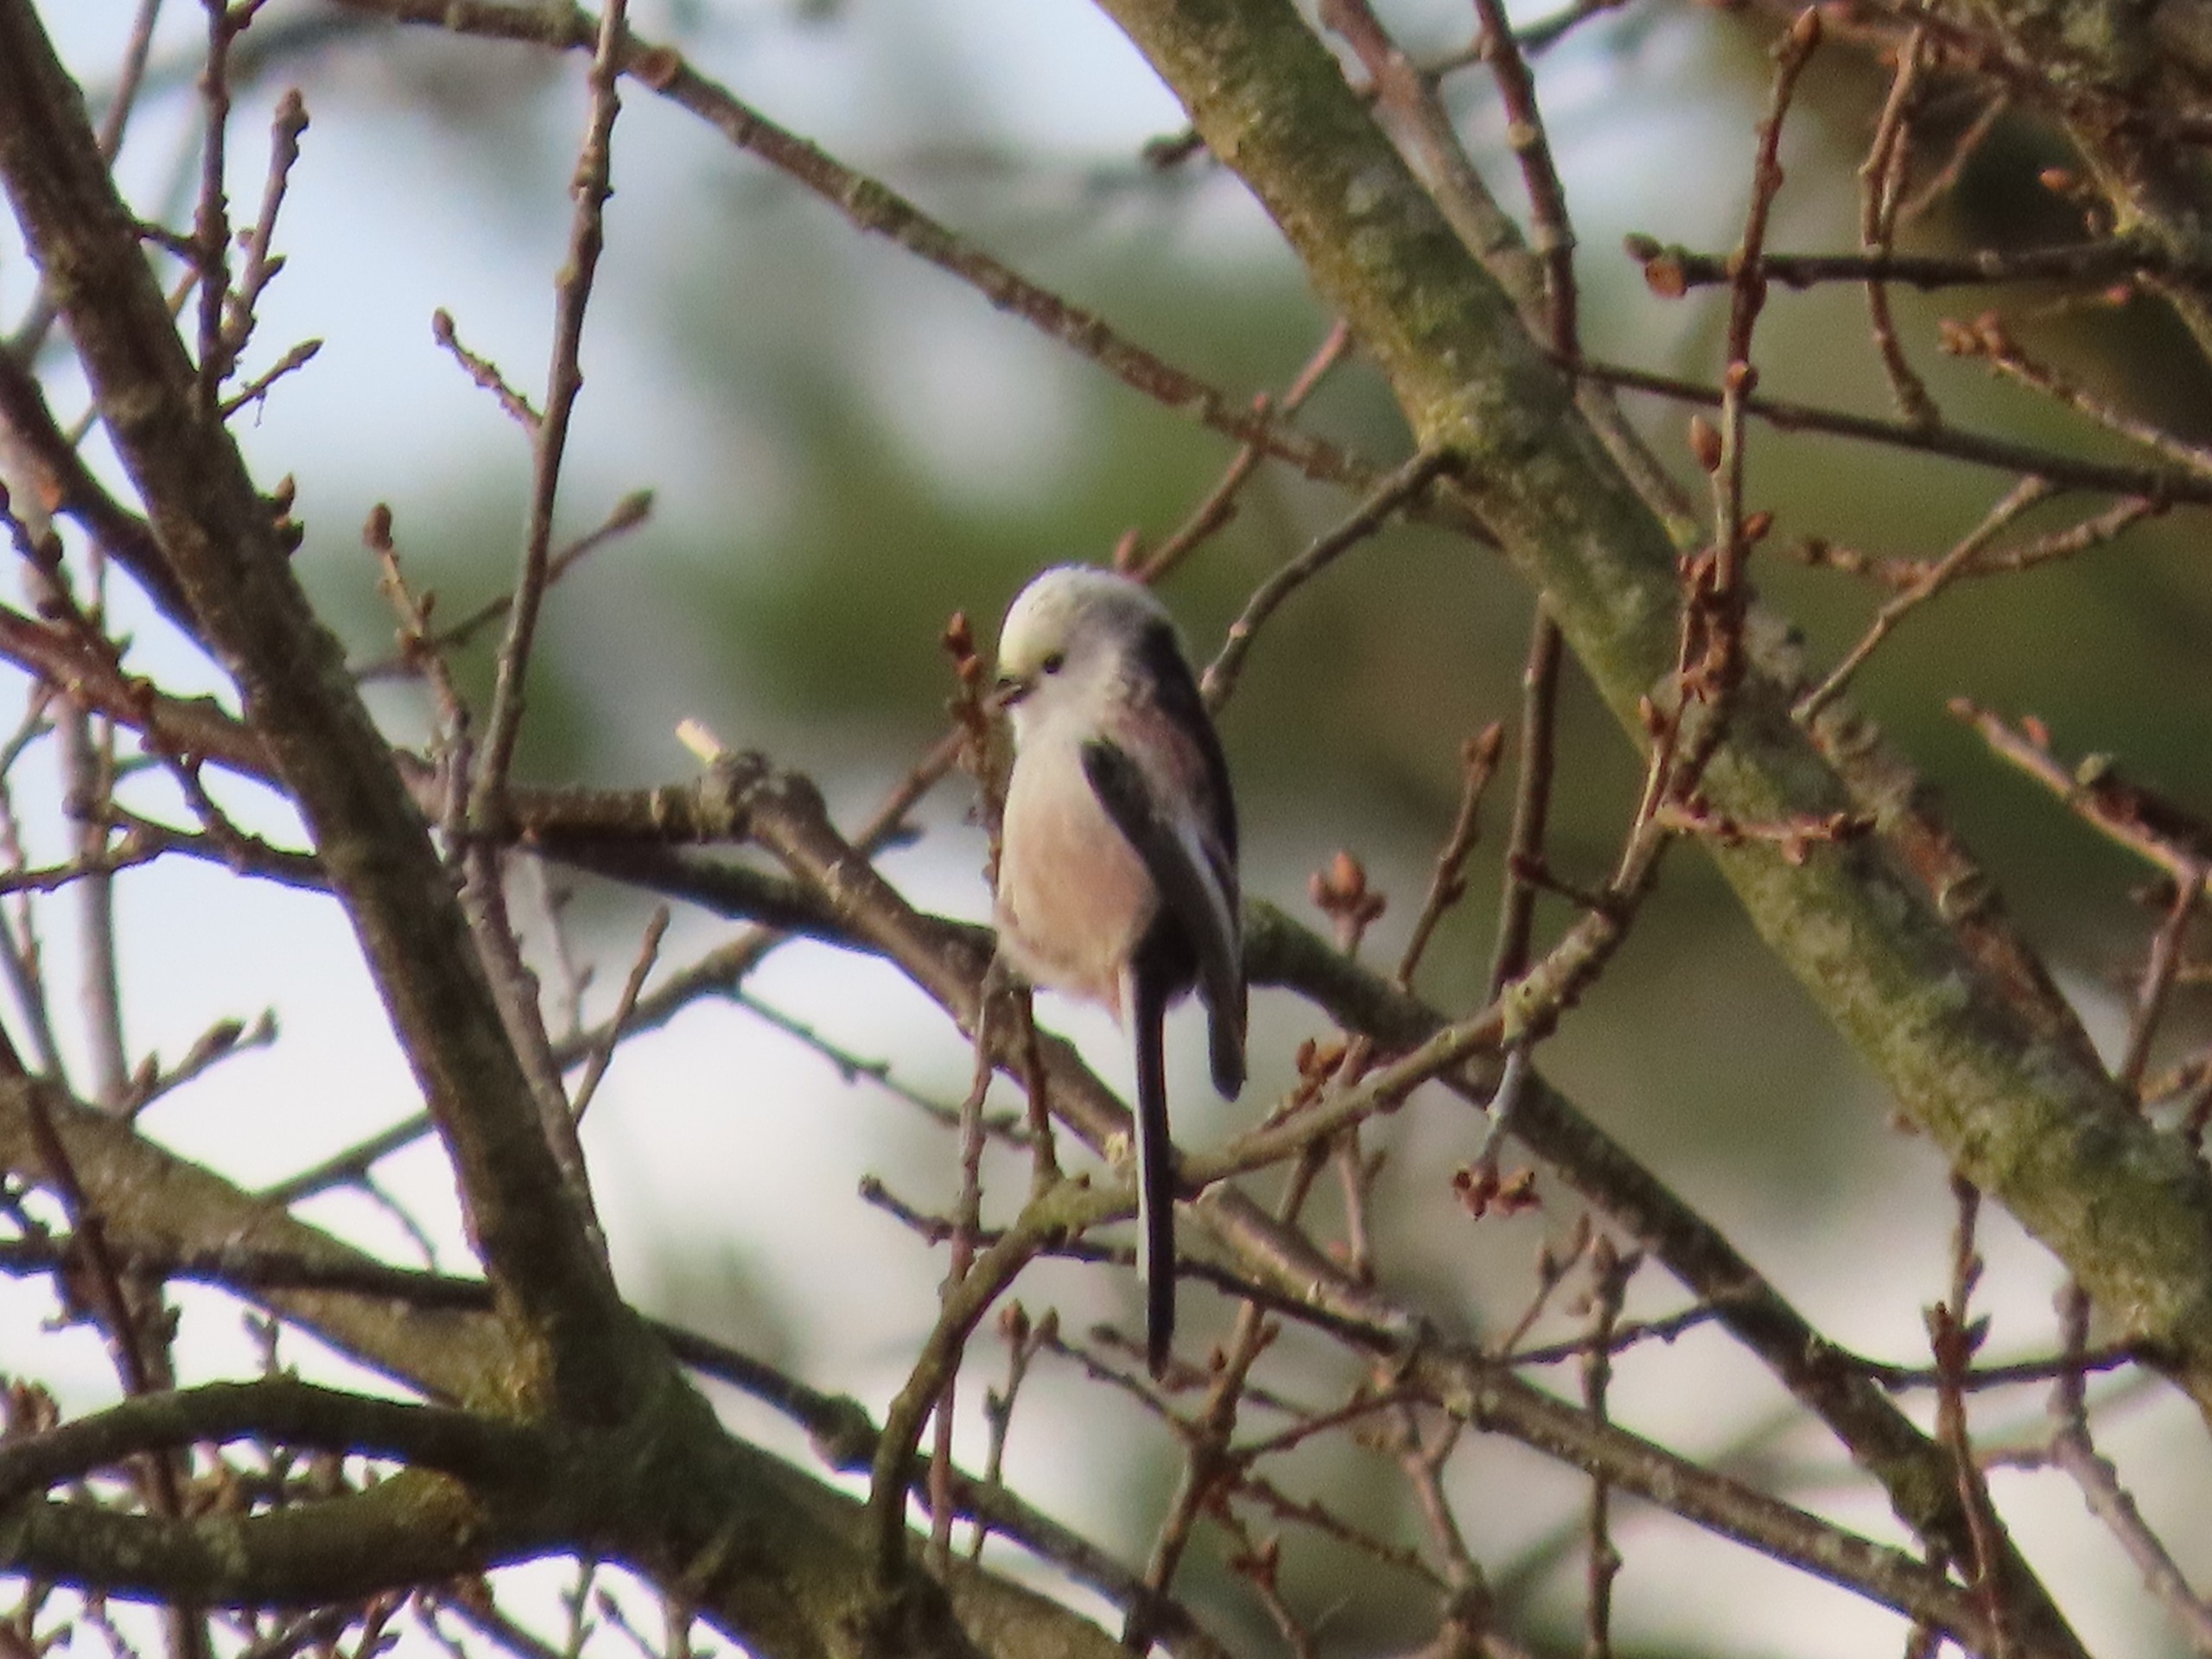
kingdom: Animalia
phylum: Chordata
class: Aves
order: Passeriformes
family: Aegithalidae
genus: Aegithalos
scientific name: Aegithalos caudatus
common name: Halemejse
